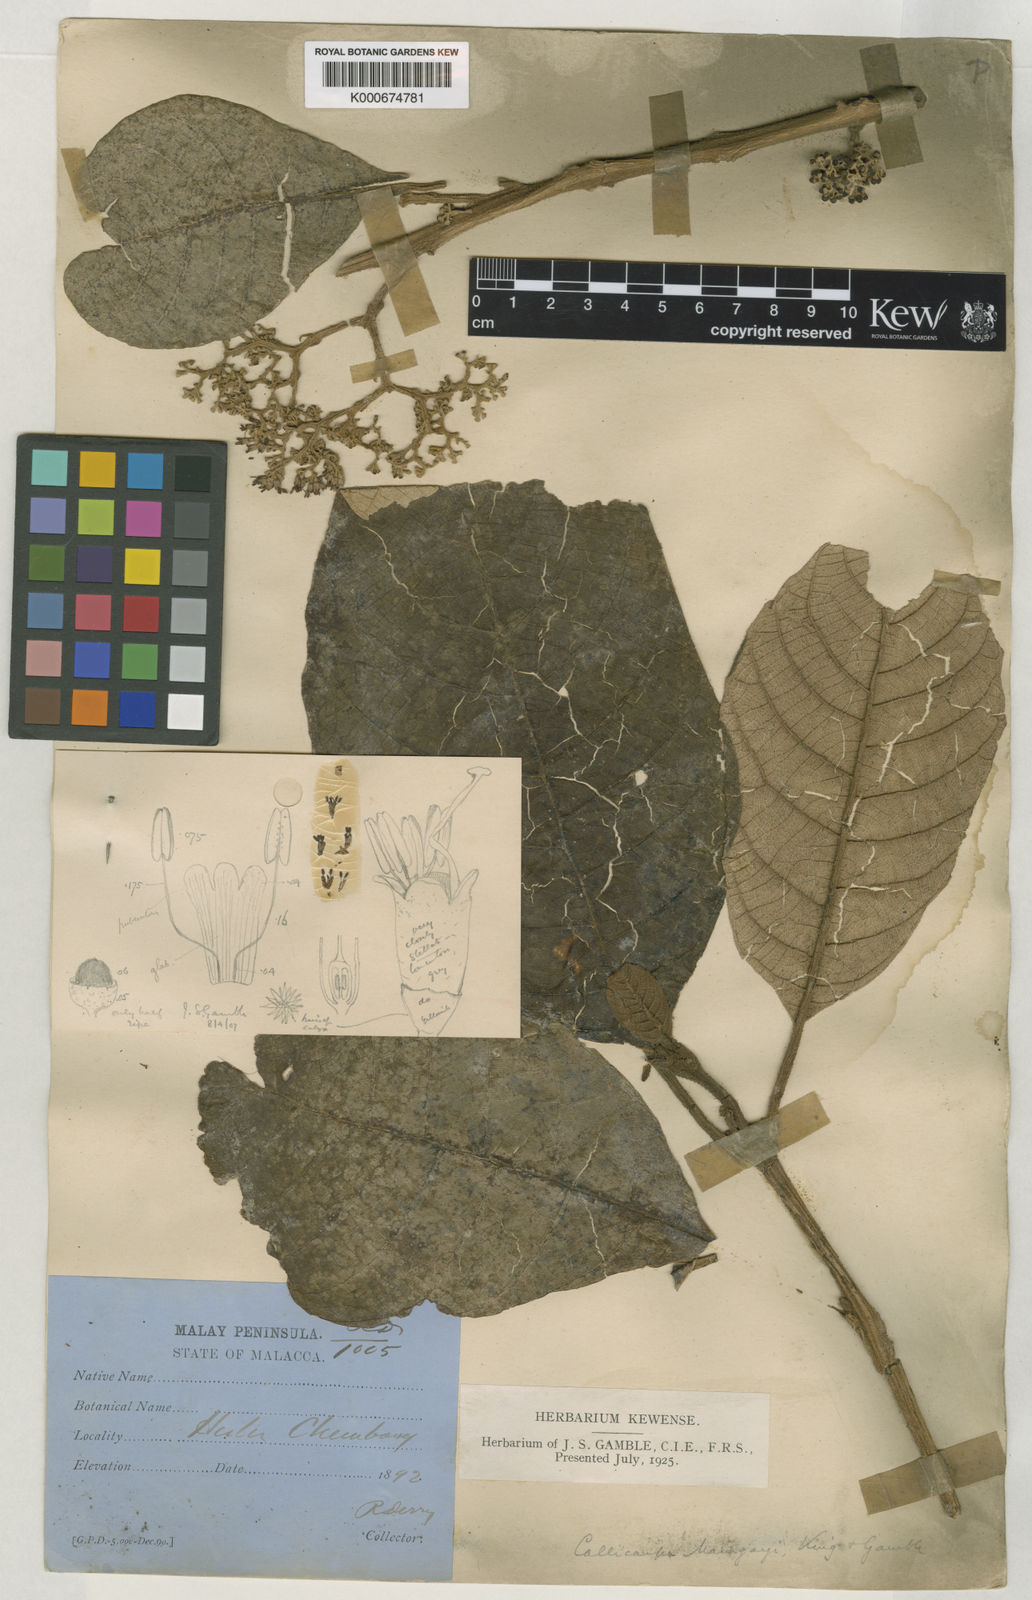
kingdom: Plantae
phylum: Tracheophyta
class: Magnoliopsida
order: Lamiales
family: Lamiaceae
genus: Callicarpa
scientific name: Callicarpa tomentosa
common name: Great woolly malayan-lilac
